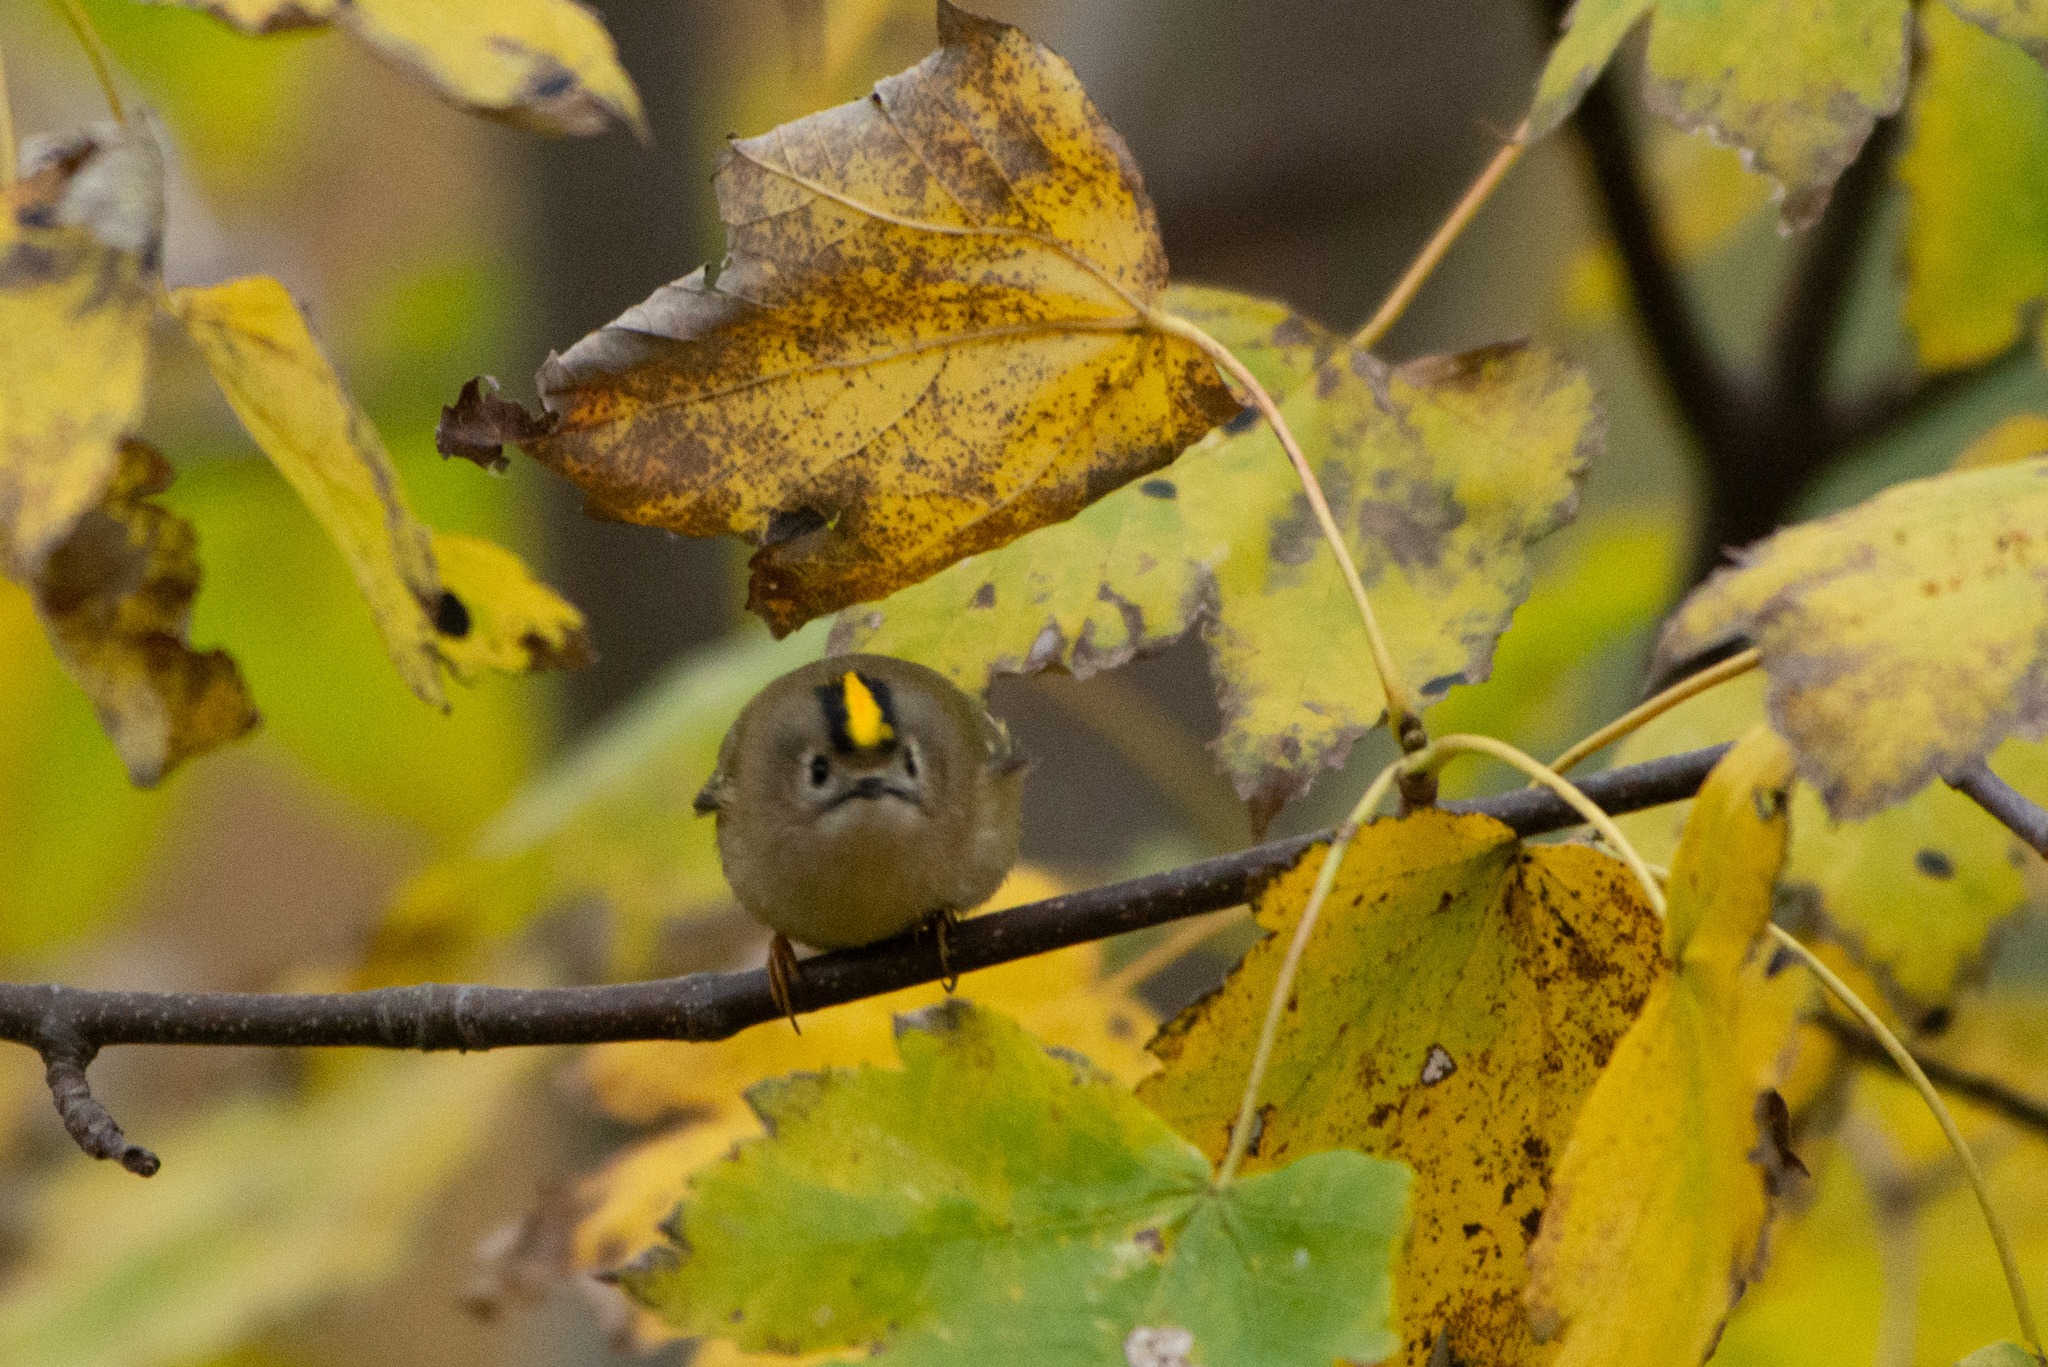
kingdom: Animalia
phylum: Chordata
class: Aves
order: Passeriformes
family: Regulidae
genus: Regulus
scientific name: Regulus regulus
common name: Fuglekonge
